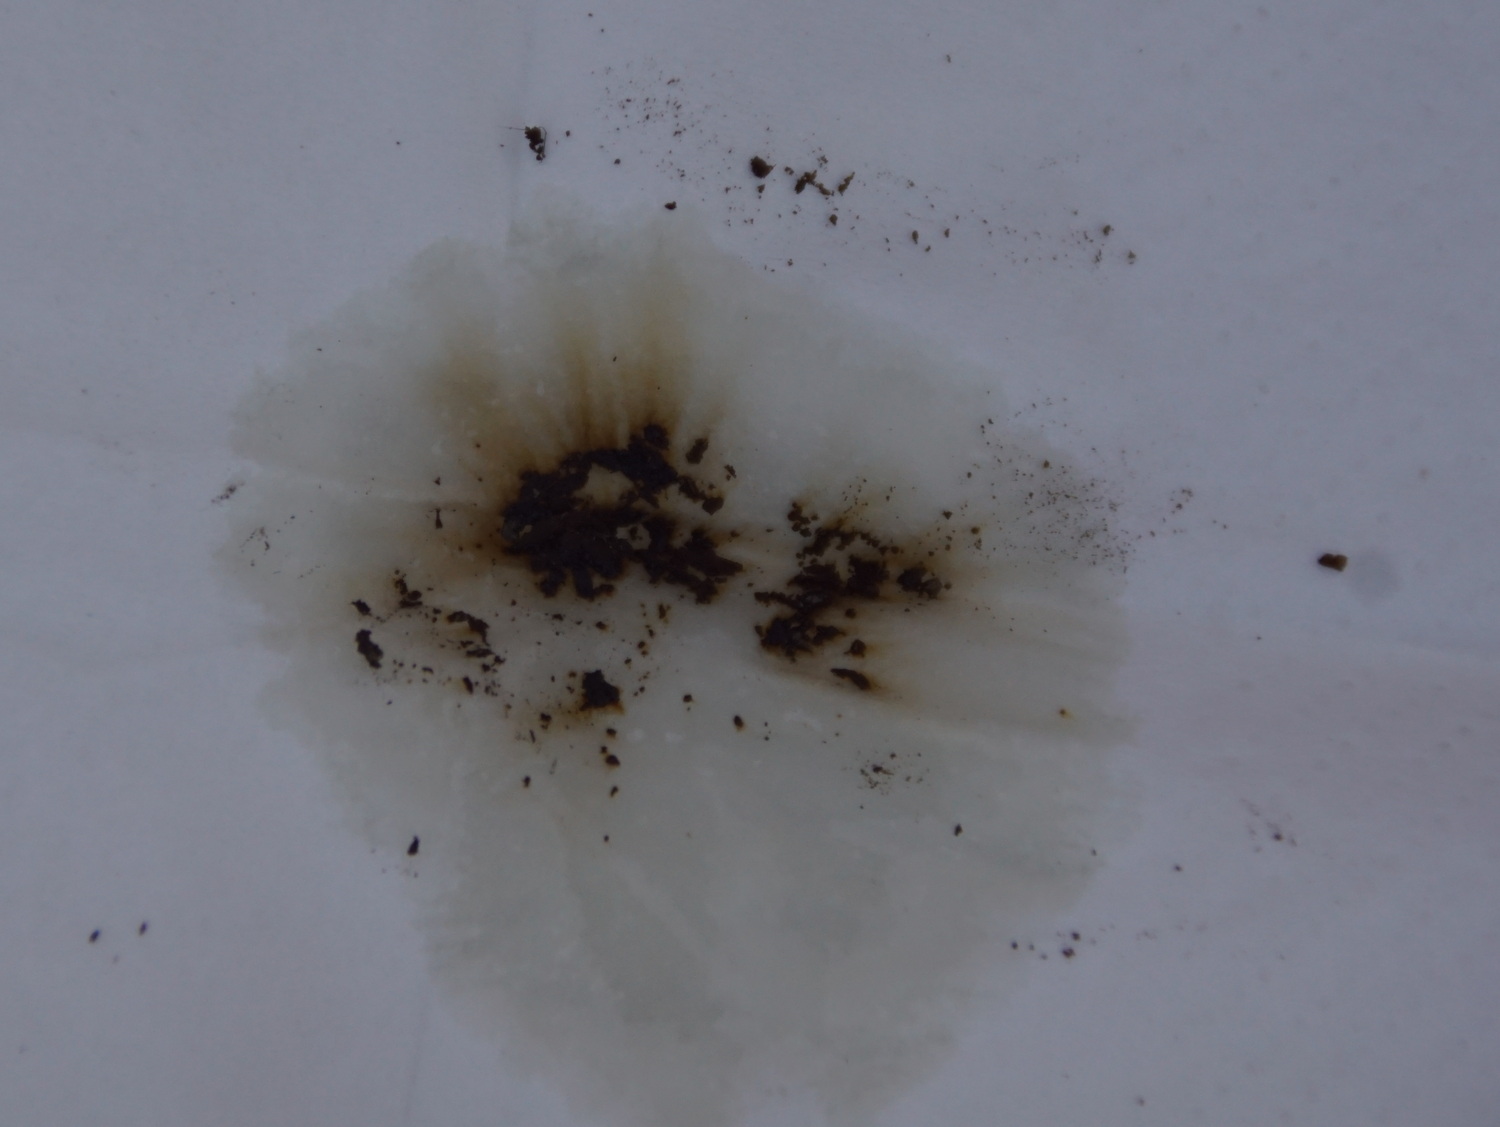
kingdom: Fungi
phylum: Ascomycota
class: Sordariomycetes
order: Xylariales
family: Hypoxylaceae
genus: Hypoxylon
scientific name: Hypoxylon macrocarpum
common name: skorpe-kulbær
